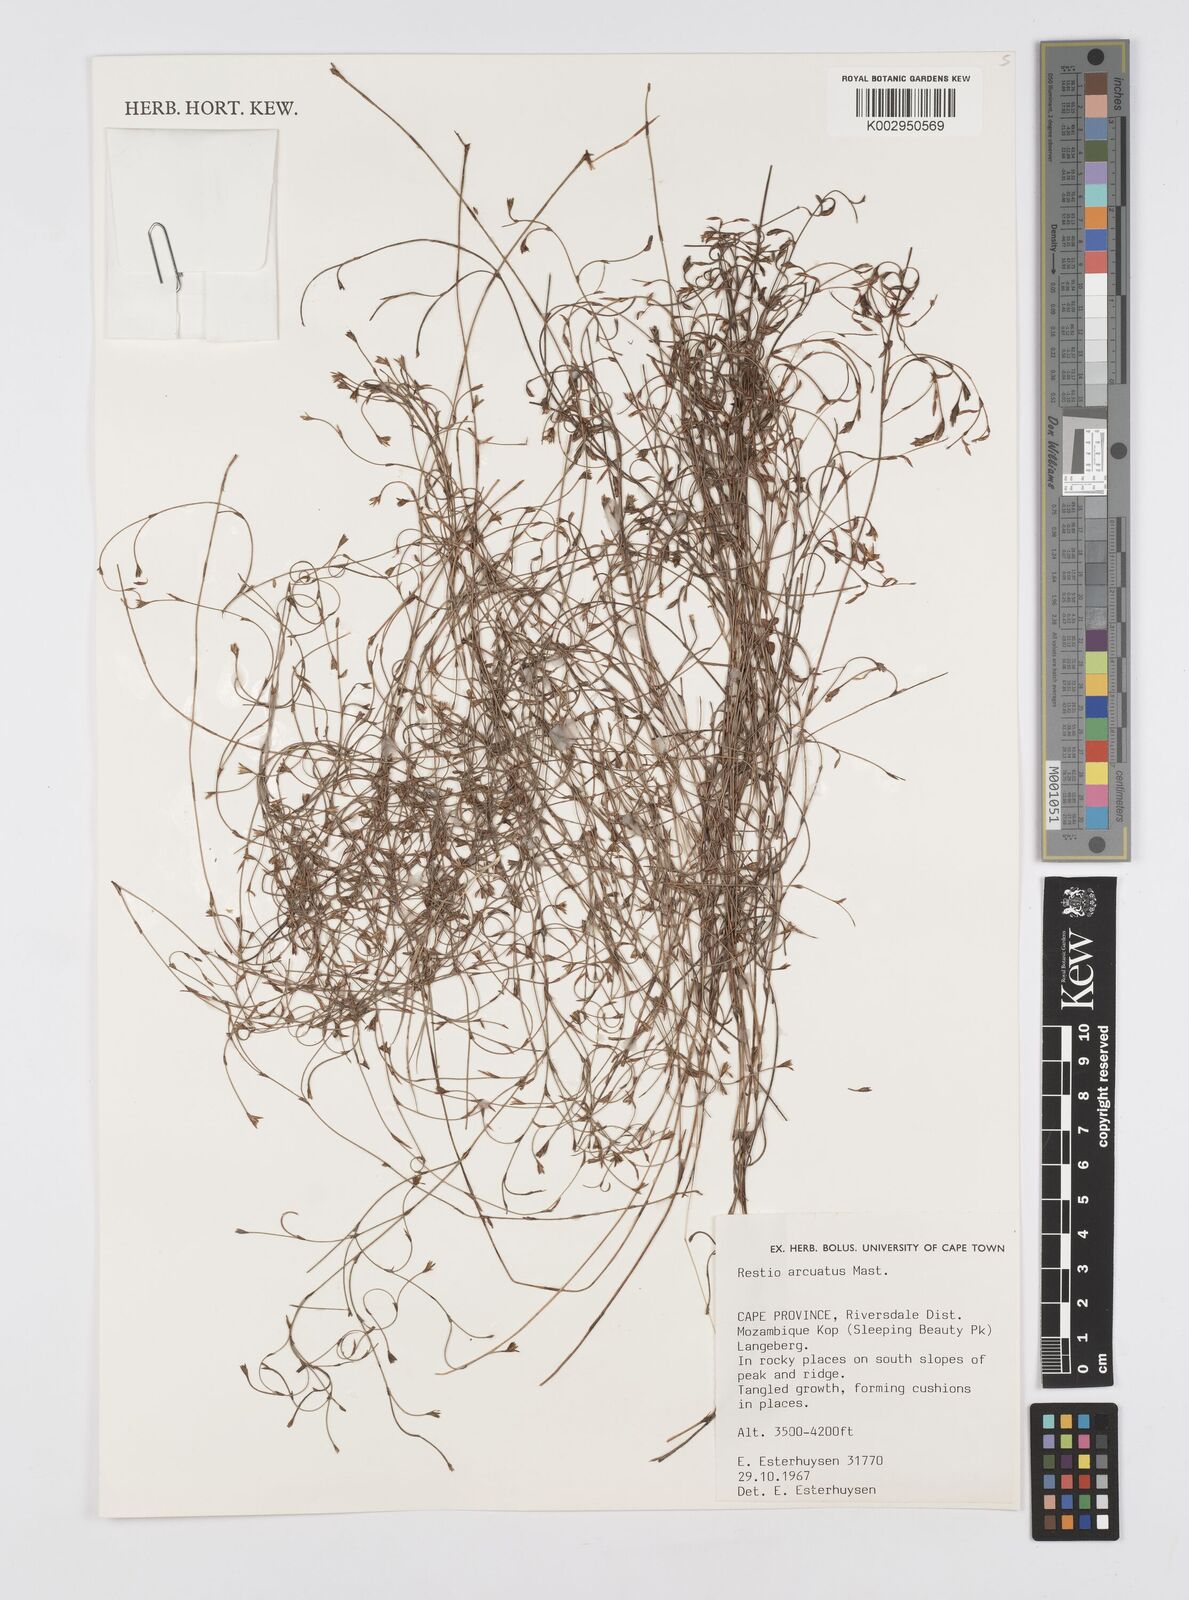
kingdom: Plantae
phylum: Tracheophyta
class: Liliopsida
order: Poales
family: Restionaceae
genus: Restio
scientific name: Restio arcuatus
